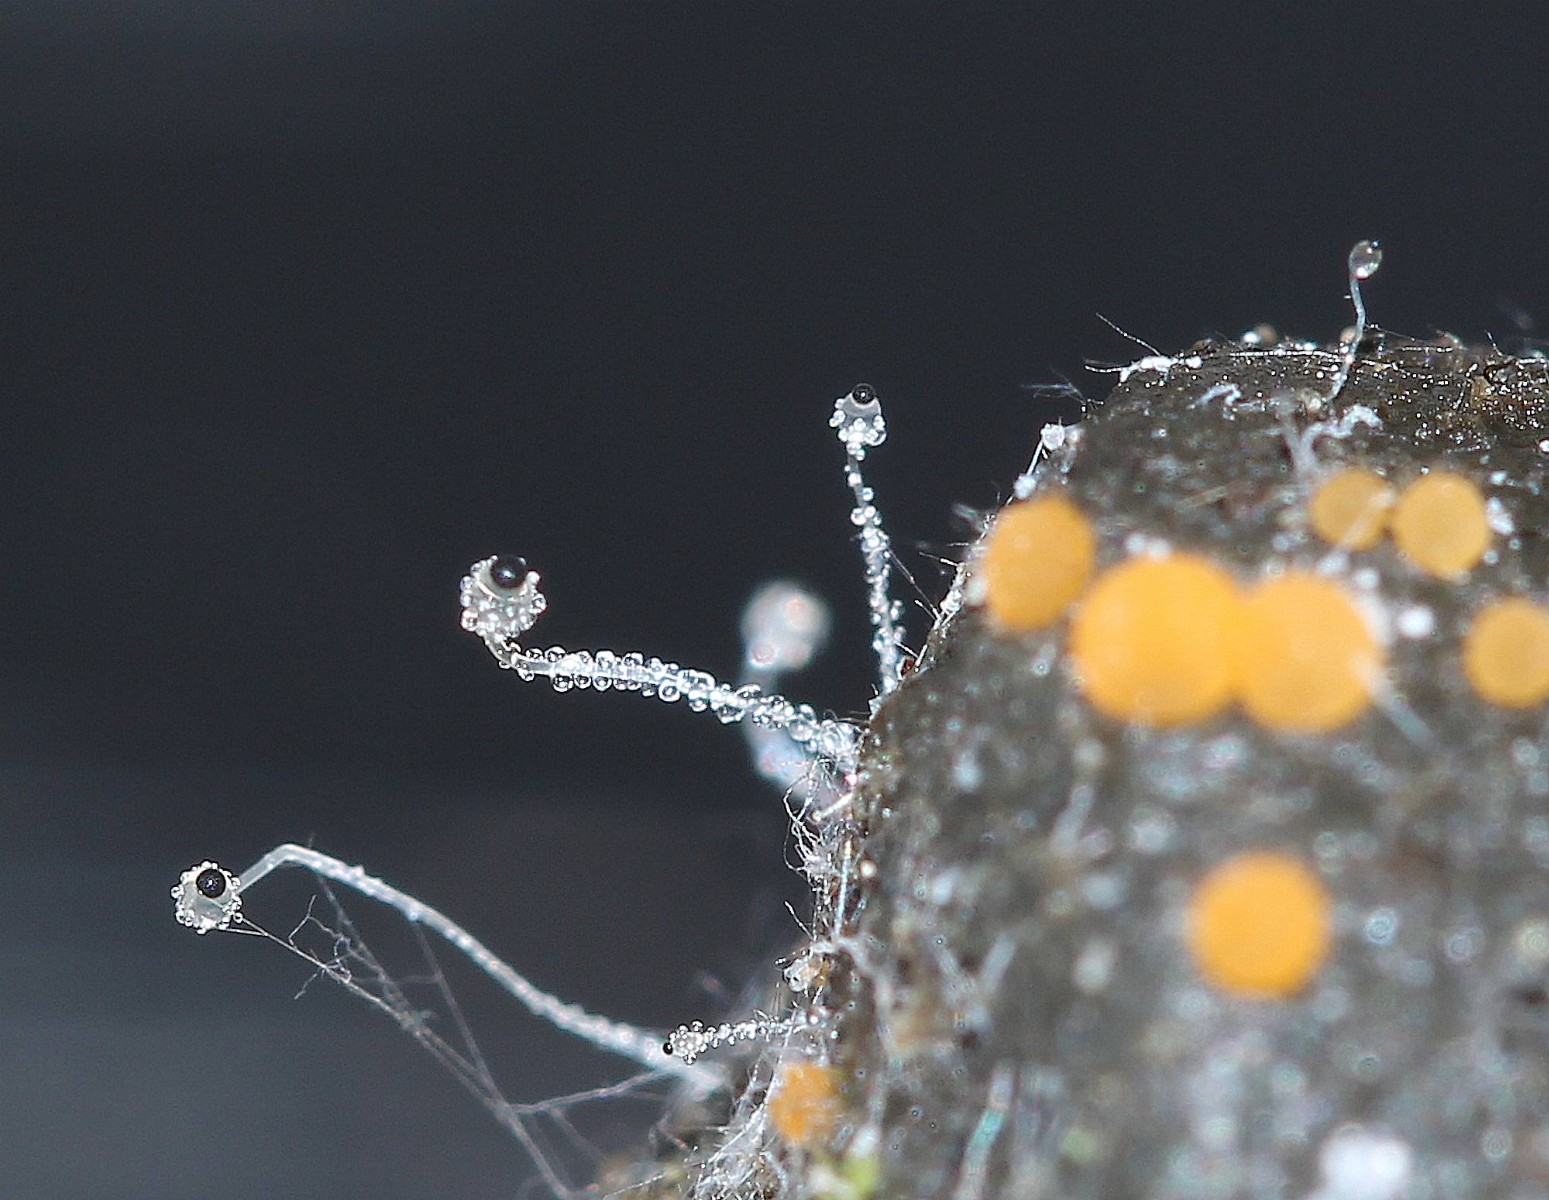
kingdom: Fungi
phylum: Mucoromycota
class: Mucoromycetes
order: Mucorales
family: Pilobolaceae
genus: Pilobolus
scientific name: Pilobolus
